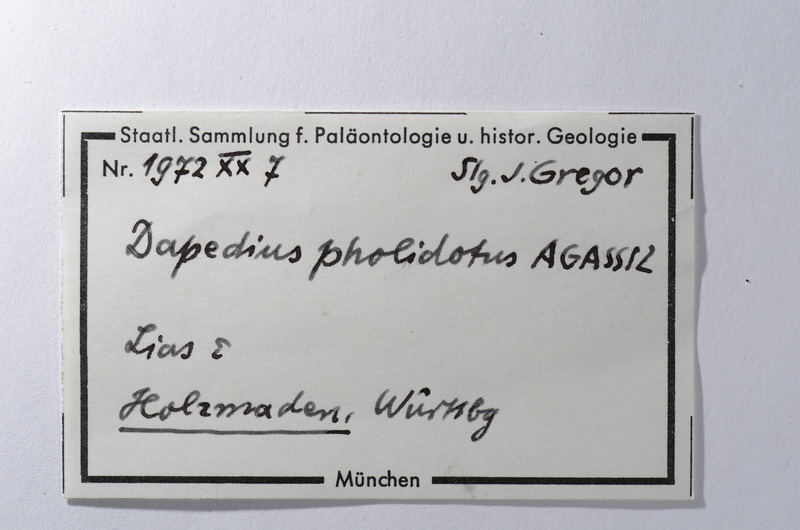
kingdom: Animalia
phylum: Chordata
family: Dapediidae
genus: Dapedium
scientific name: Dapedium pholidotum
